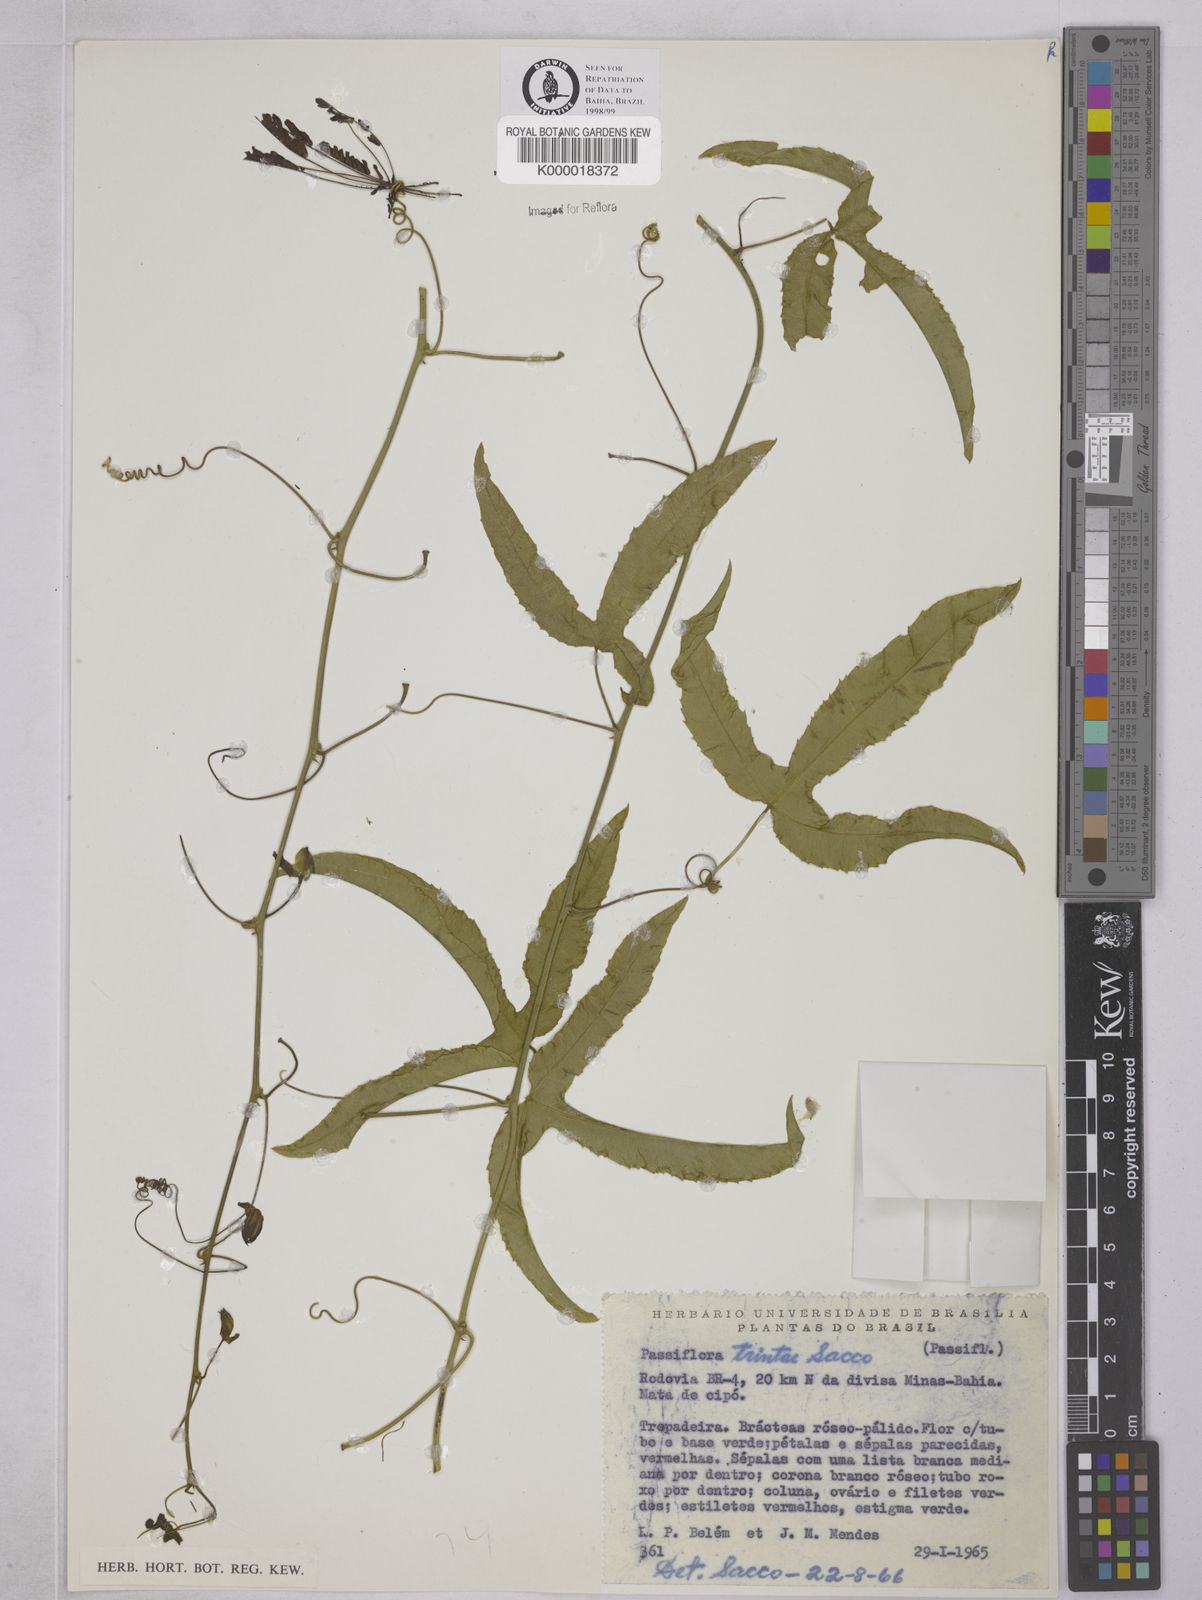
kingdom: Plantae
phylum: Tracheophyta
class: Magnoliopsida
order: Malpighiales
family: Passifloraceae
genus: Passiflora
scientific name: Passiflora trintae
